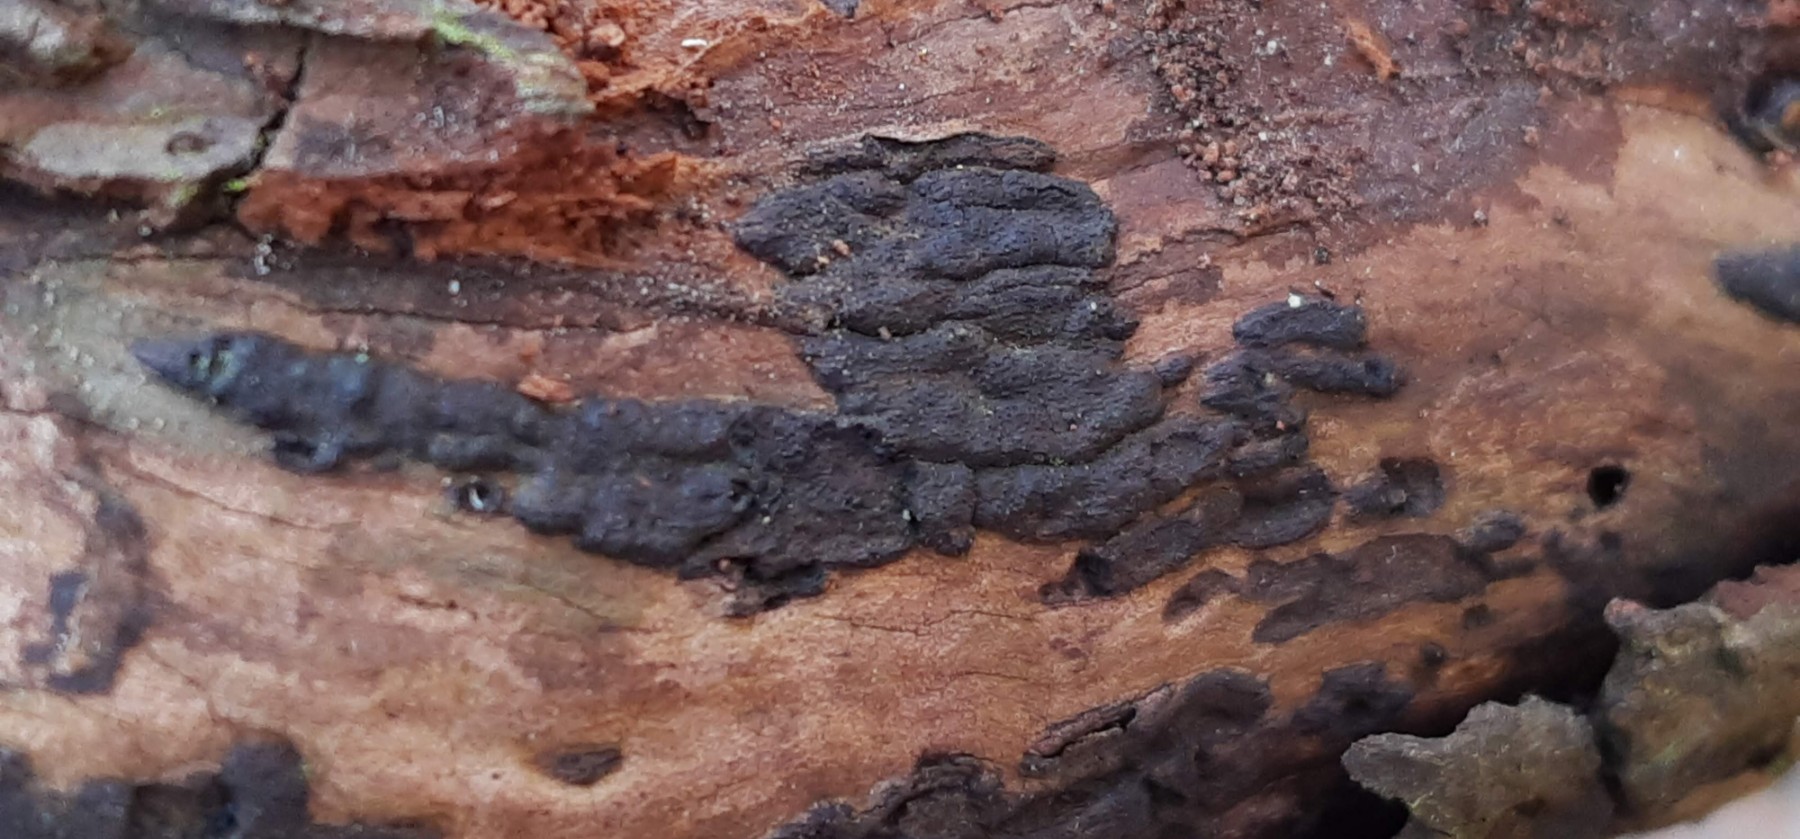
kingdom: Fungi
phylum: Ascomycota
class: Sordariomycetes
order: Xylariales
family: Diatrypaceae
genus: Eutypa
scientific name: Eutypa lata
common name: almindelig kulskorpe
